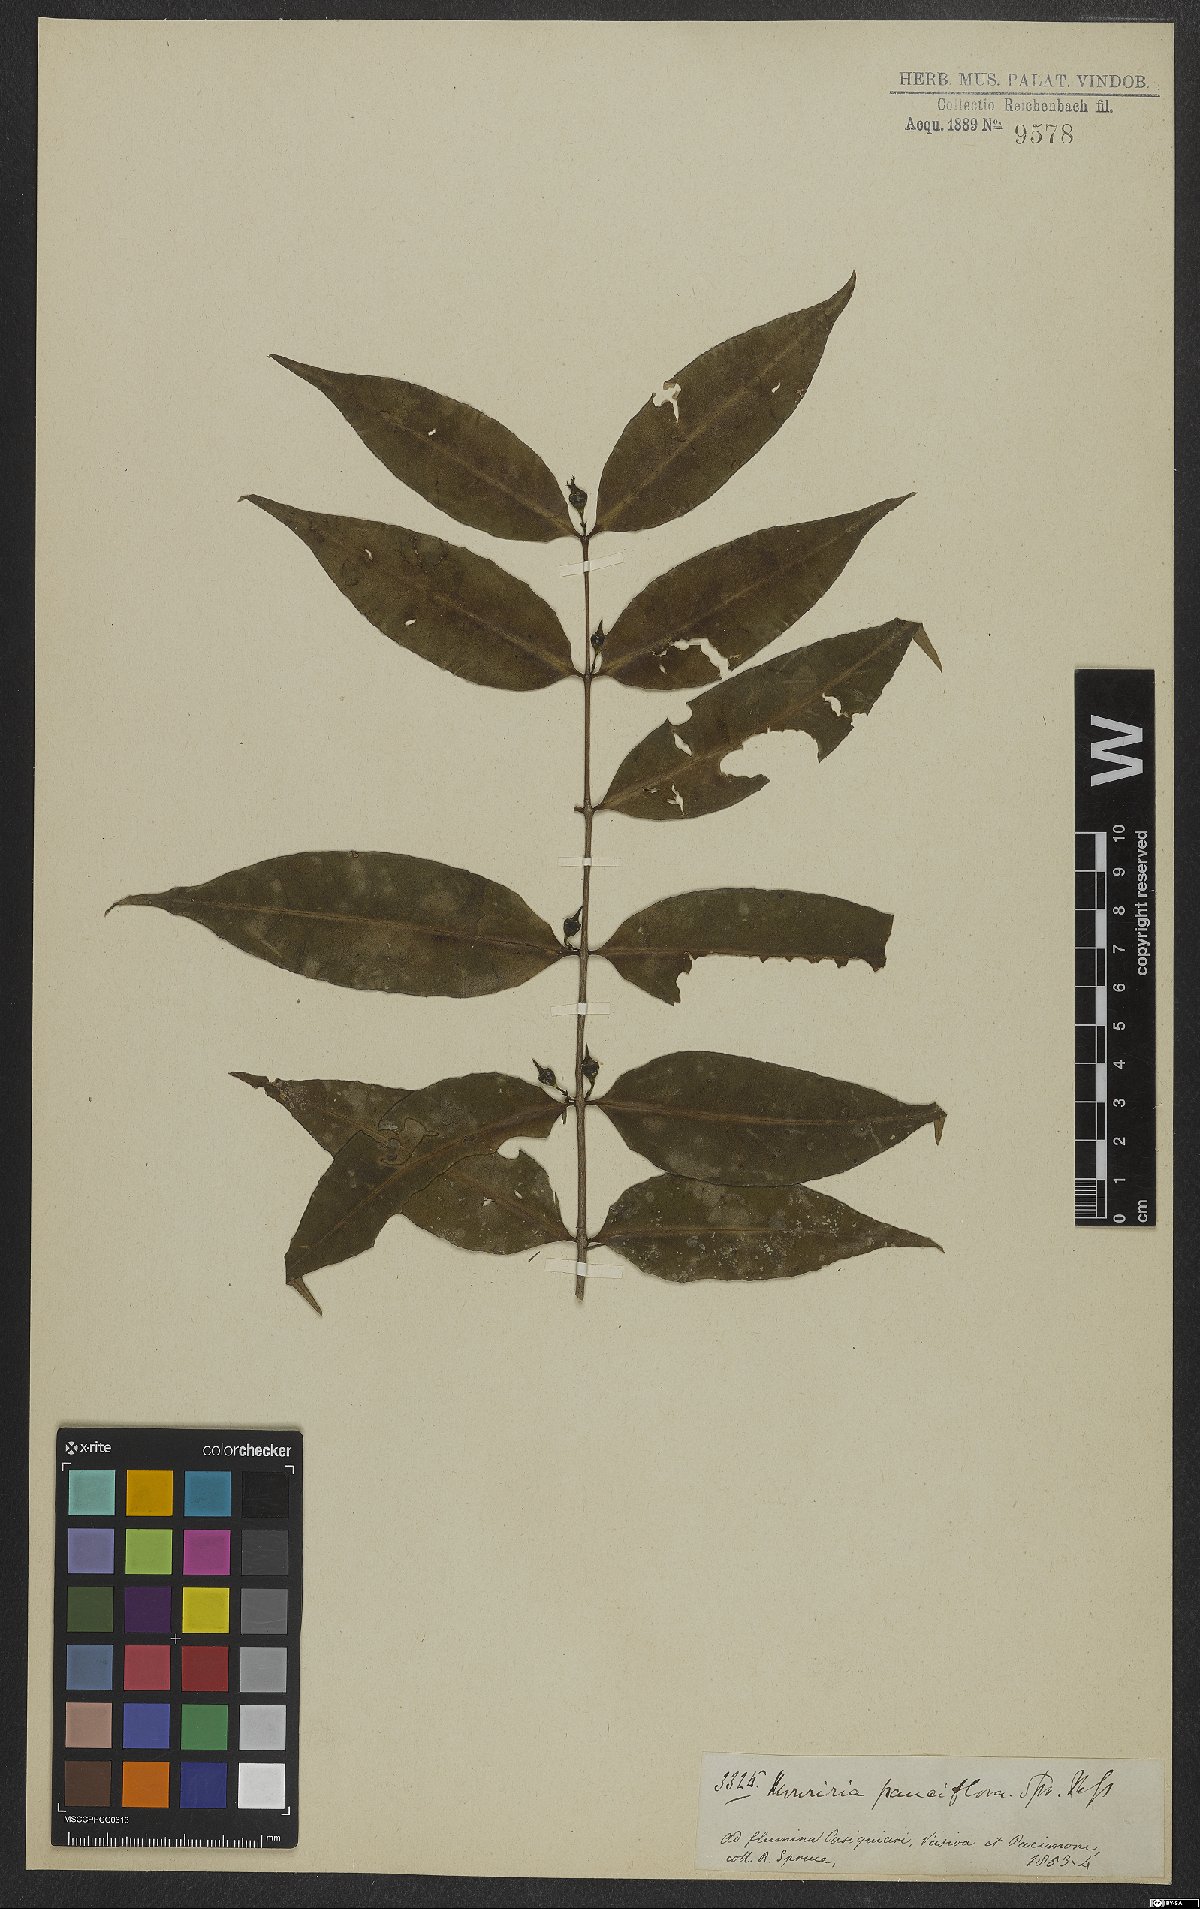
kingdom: Plantae
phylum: Tracheophyta
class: Magnoliopsida
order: Myrtales
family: Melastomataceae
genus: Mouriri
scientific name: Mouriri pauciflora
